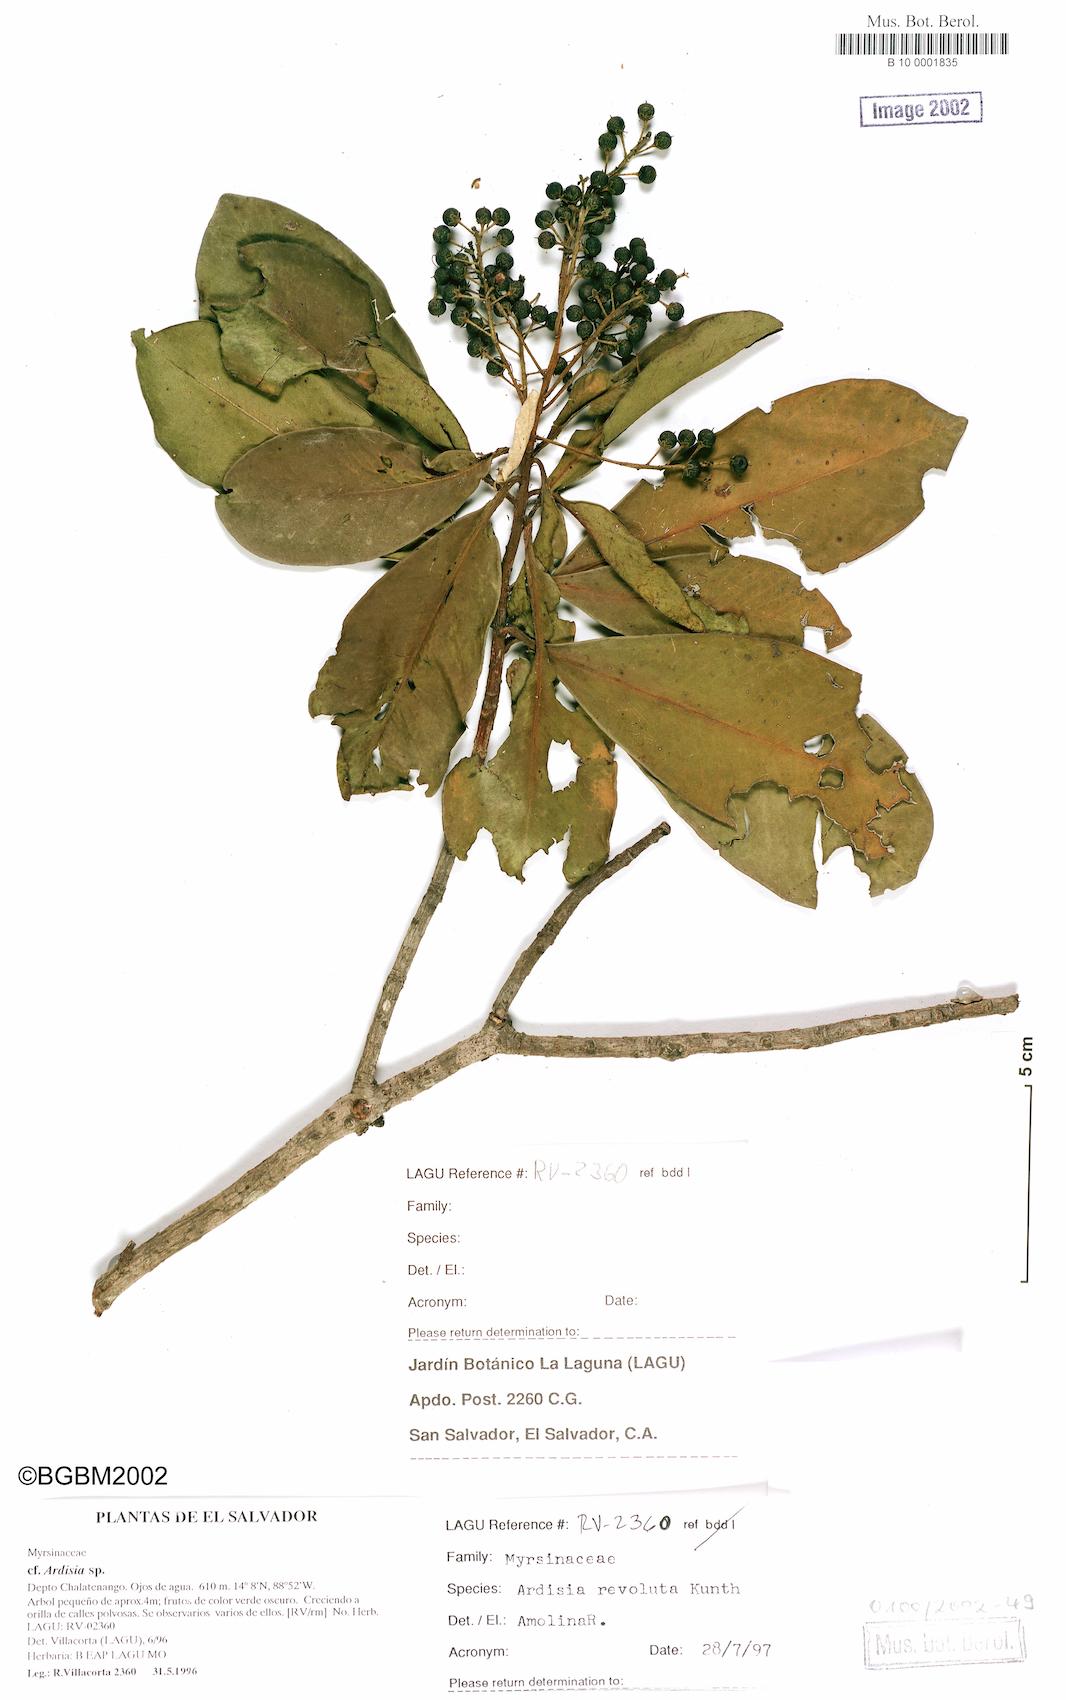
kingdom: Plantae
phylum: Tracheophyta
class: Magnoliopsida
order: Ericales
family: Primulaceae
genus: Ardisia
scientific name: Ardisia revoluta
